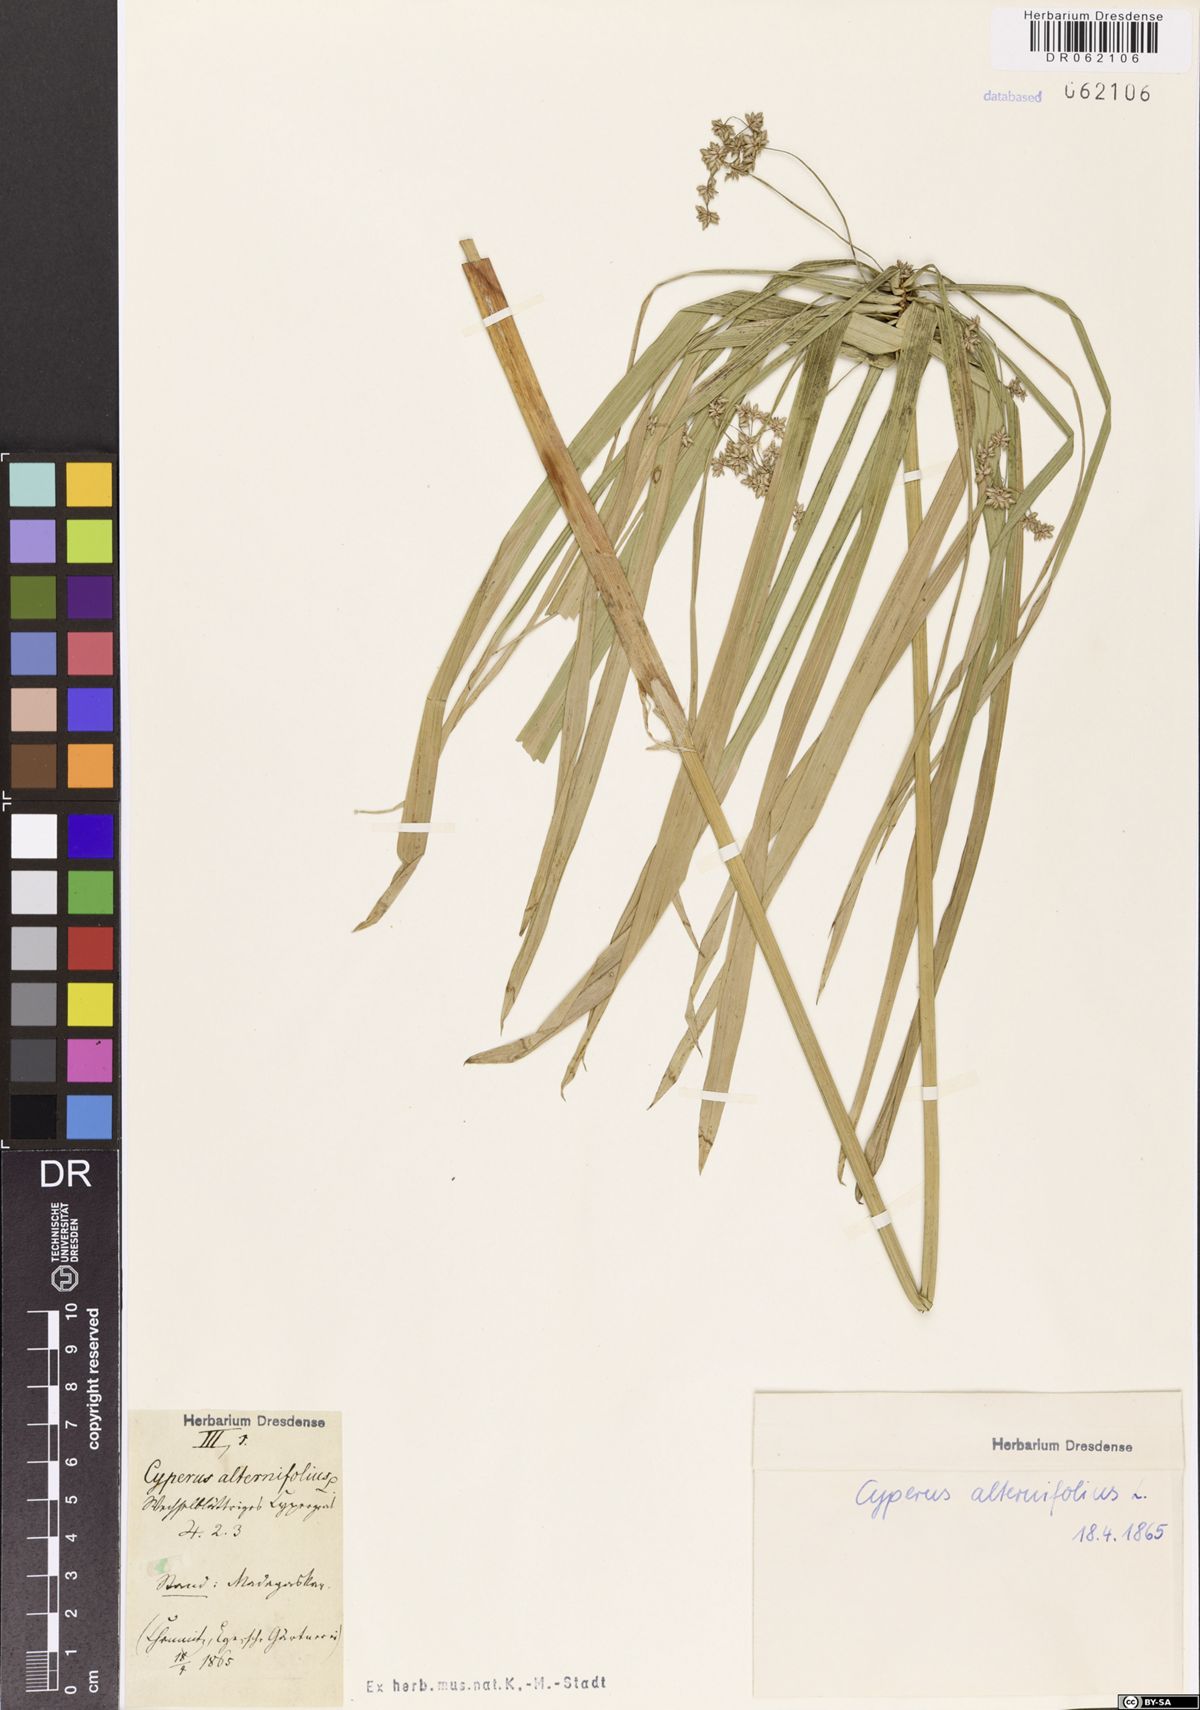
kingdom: Plantae
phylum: Tracheophyta
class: Liliopsida
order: Poales
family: Cyperaceae
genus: Cyperus
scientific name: Cyperus alternifolius
